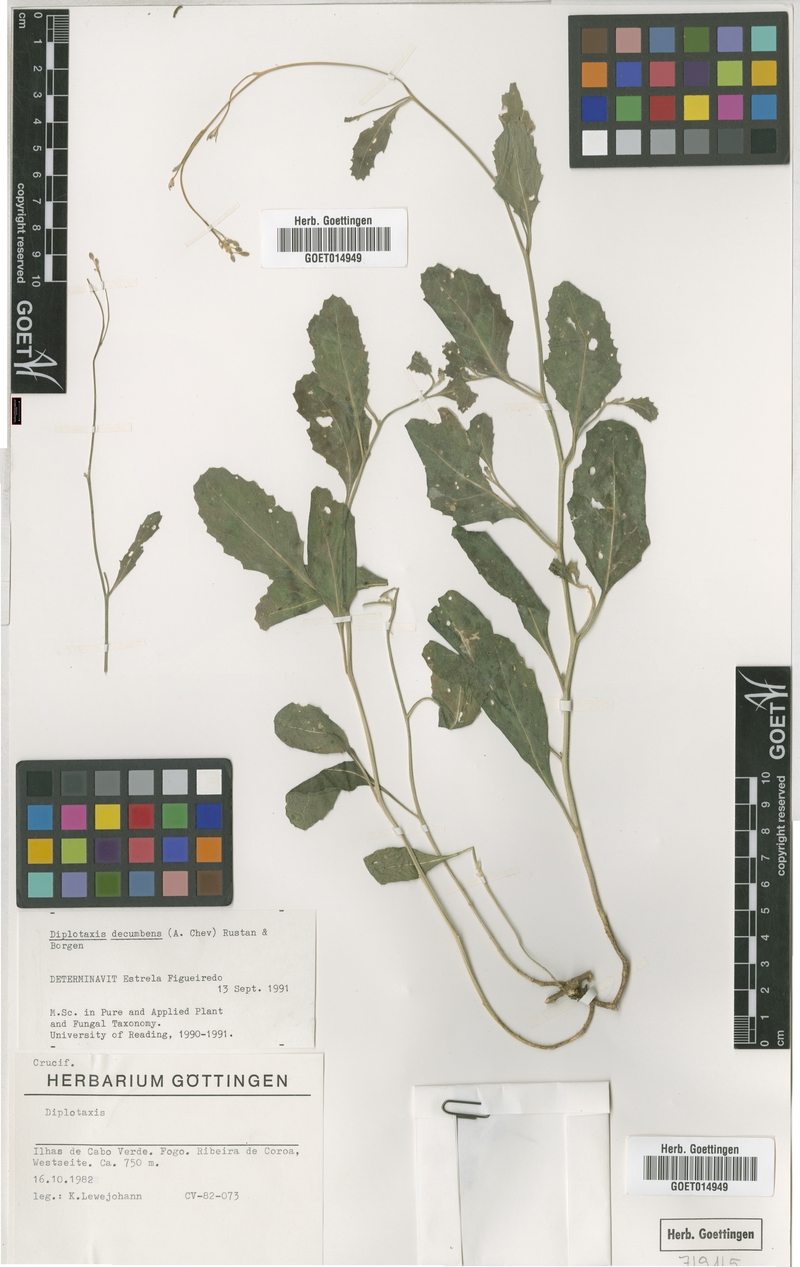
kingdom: Plantae
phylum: Tracheophyta
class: Magnoliopsida
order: Brassicales
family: Brassicaceae
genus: Diplotaxis
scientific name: Diplotaxis decumbens
